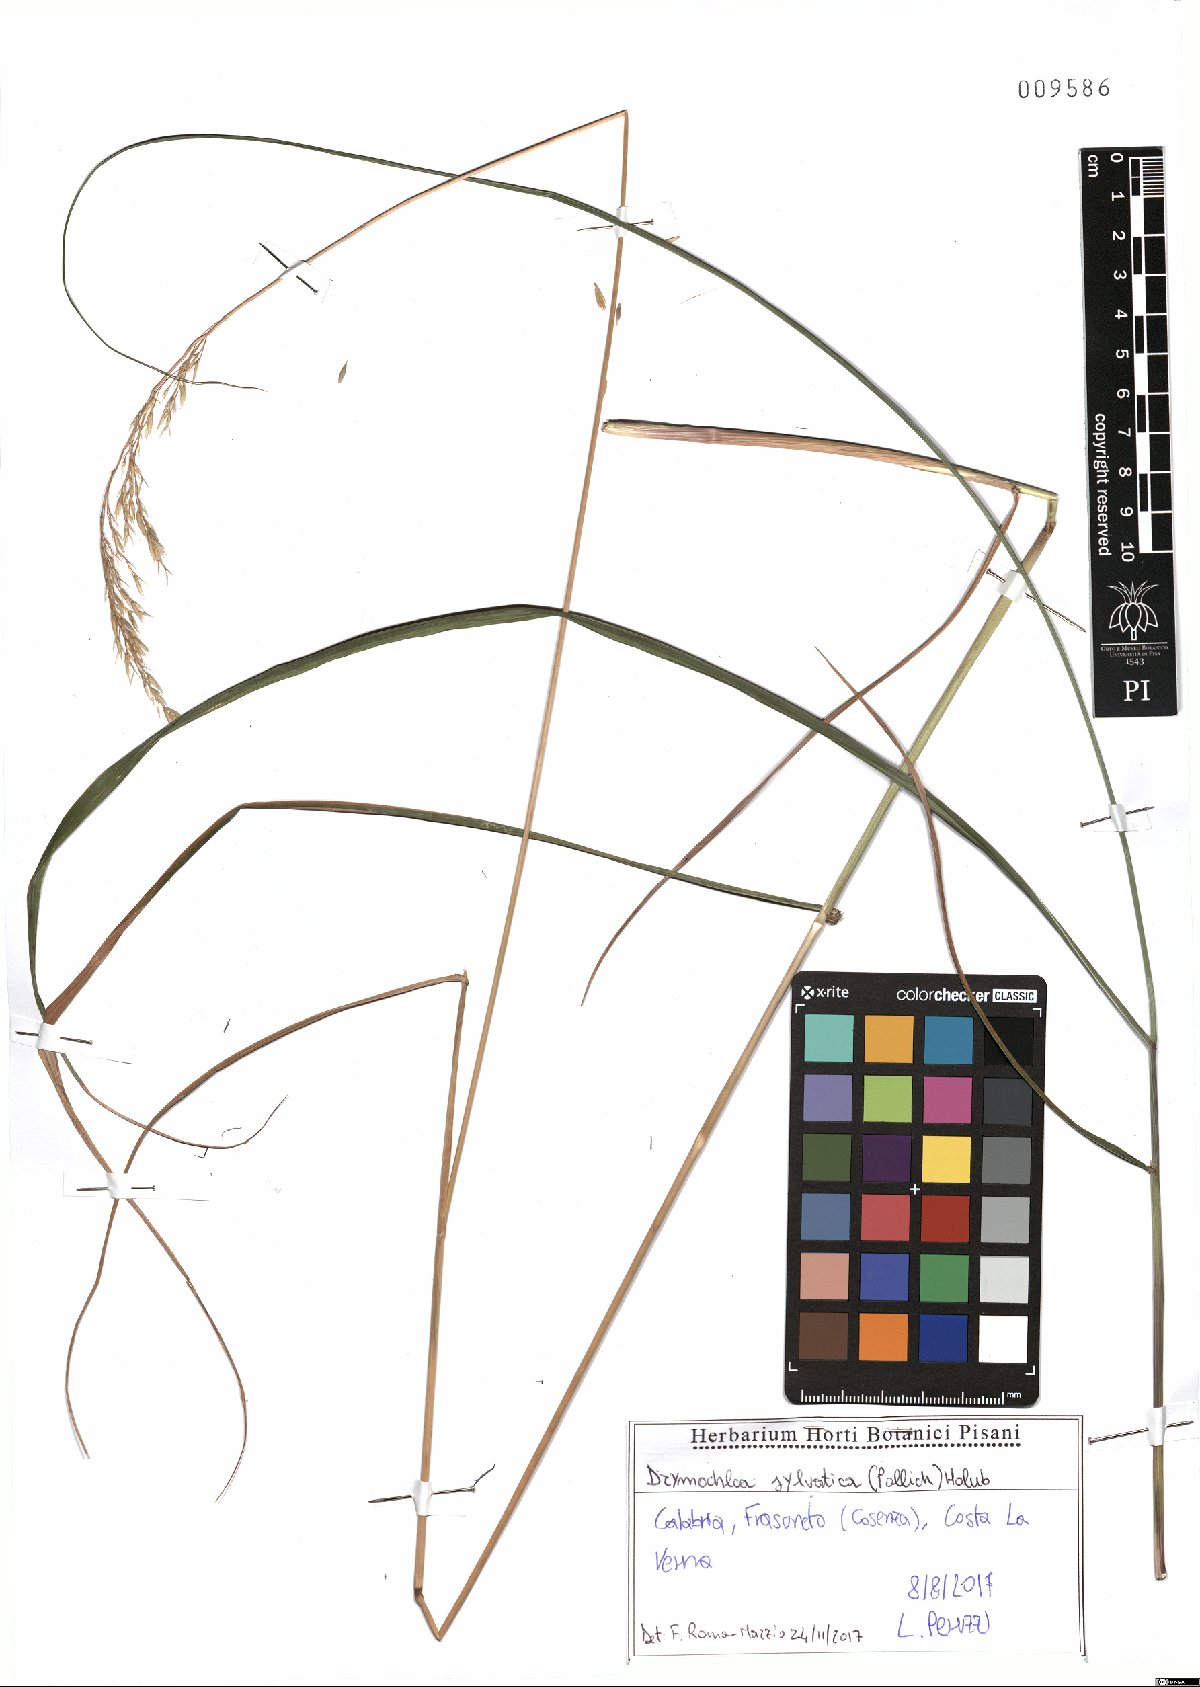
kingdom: Plantae
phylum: Tracheophyta
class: Liliopsida
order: Poales
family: Poaceae
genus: Festuca
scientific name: Festuca altissima
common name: Wood fescue
